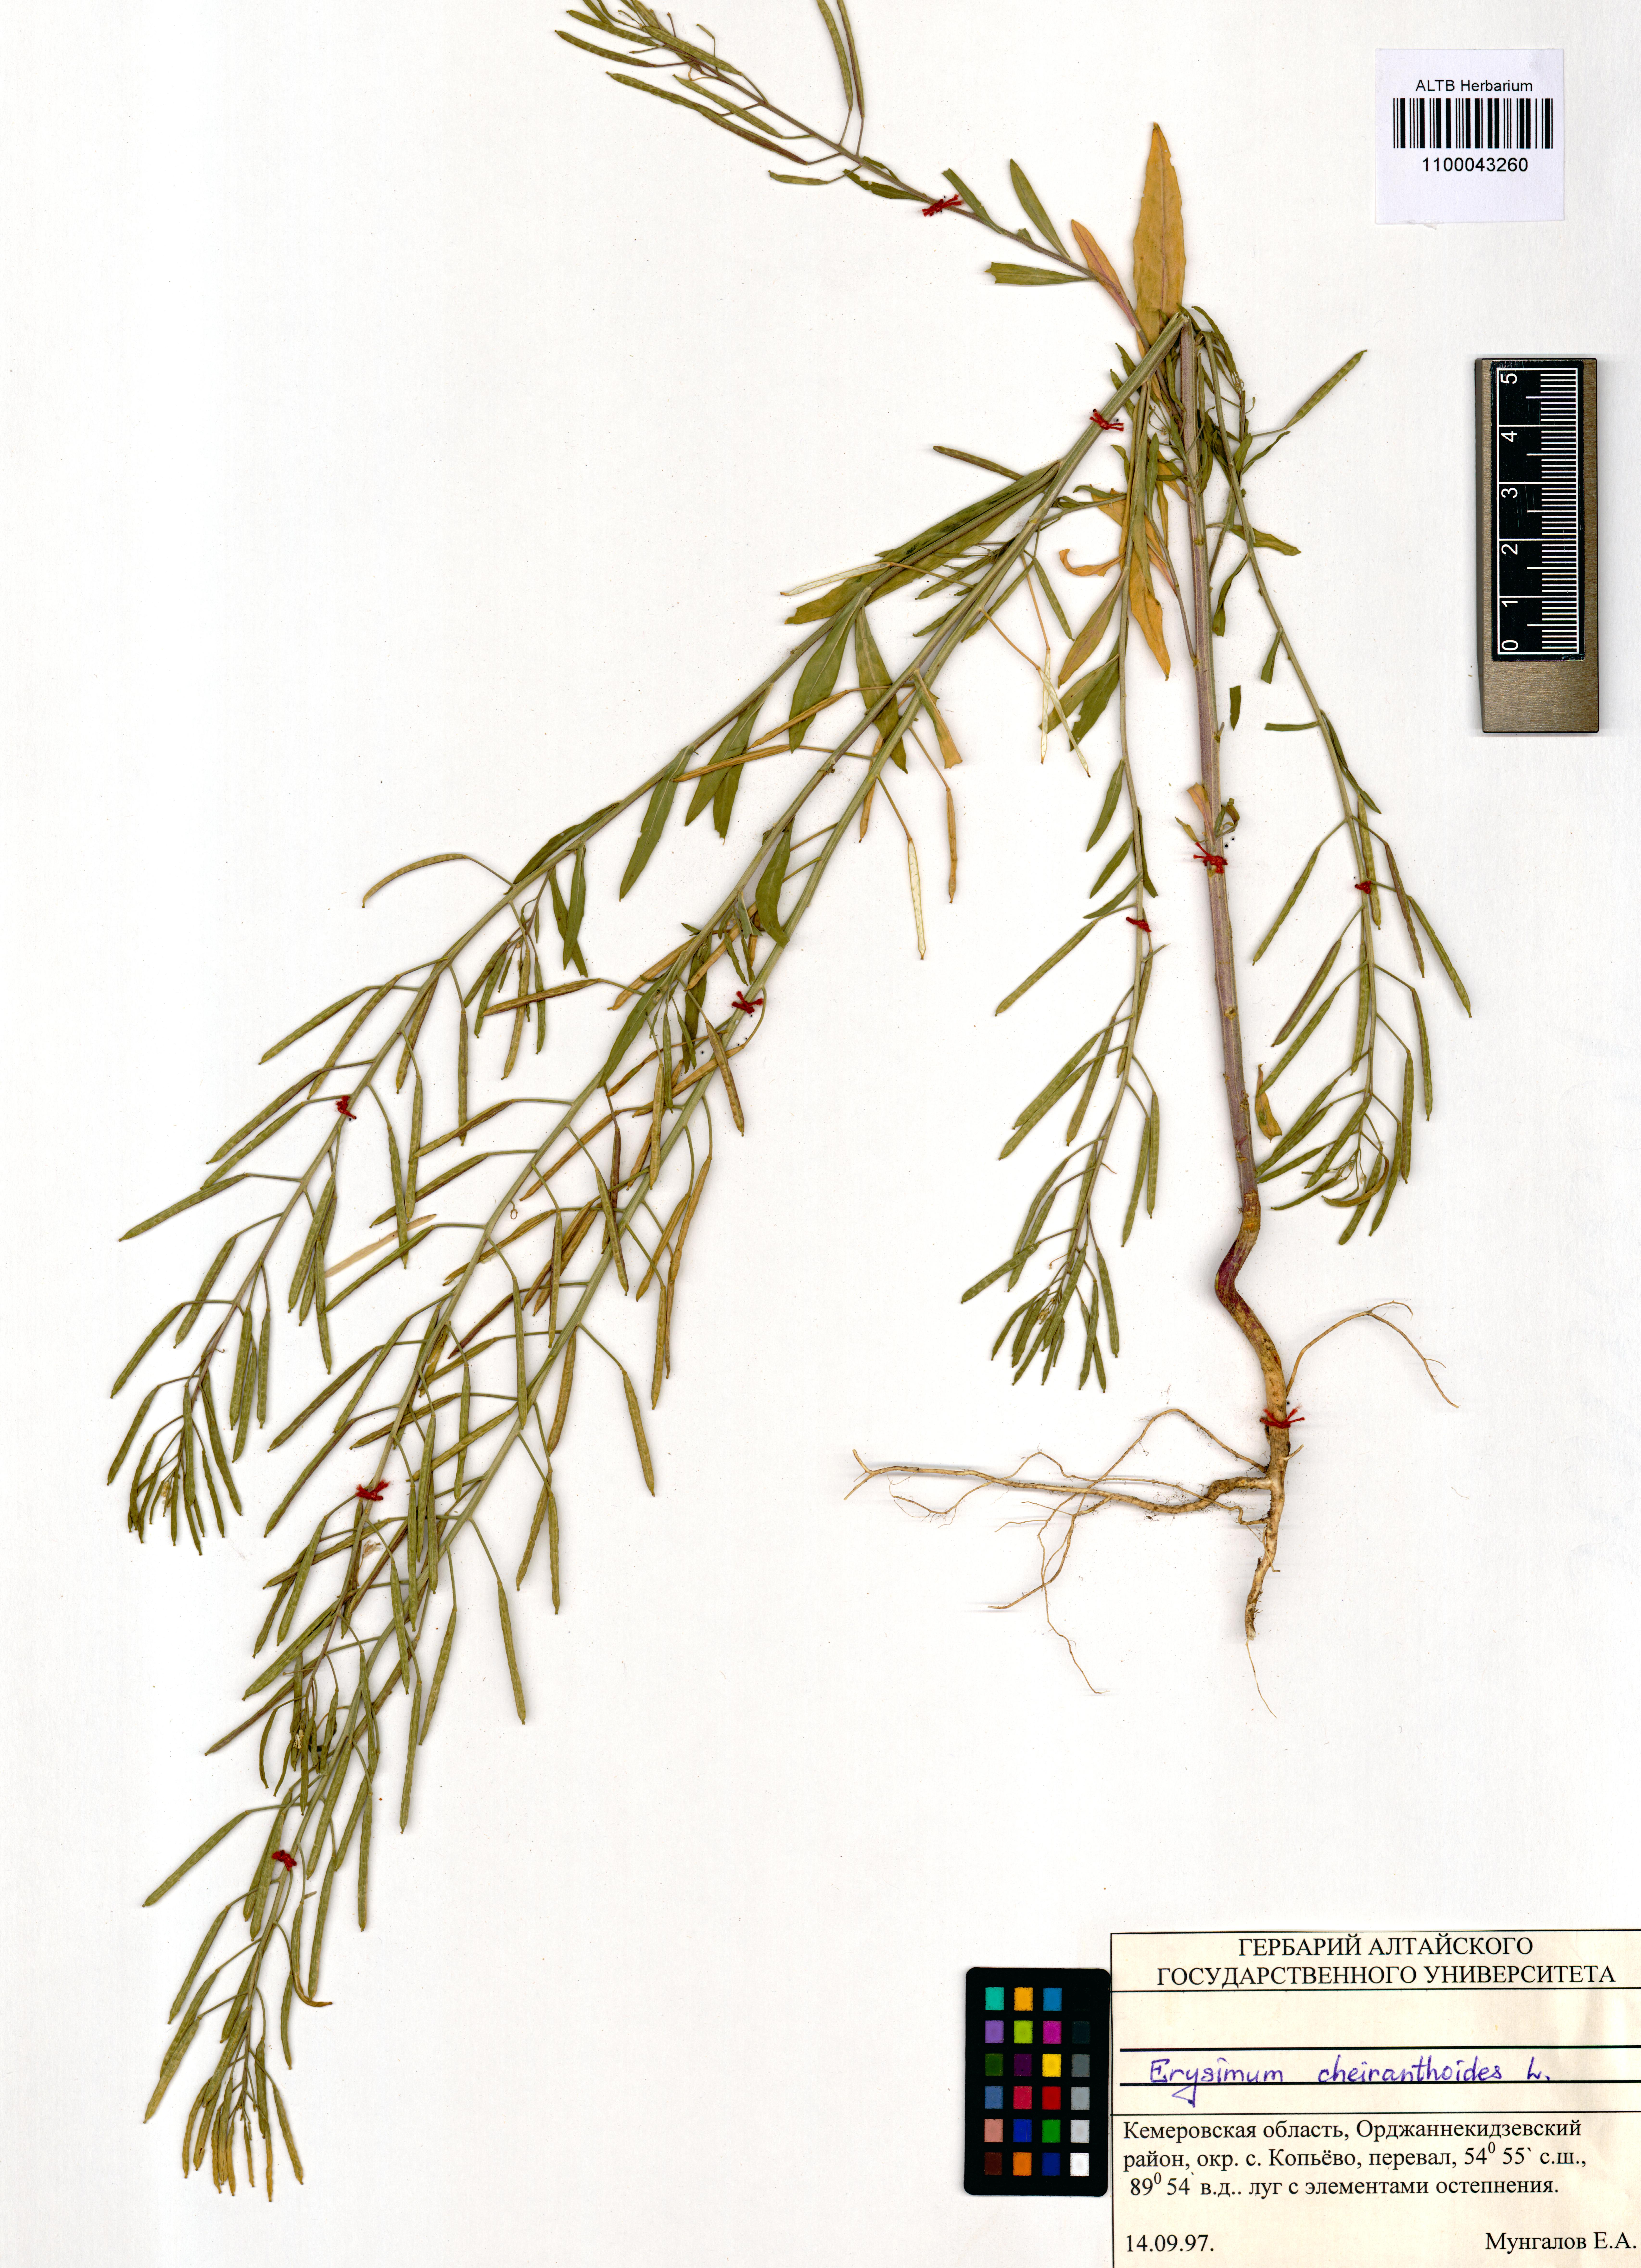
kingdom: Plantae
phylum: Tracheophyta
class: Magnoliopsida
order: Brassicales
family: Brassicaceae
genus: Erysimum
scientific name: Erysimum cheiranthoides
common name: Treacle mustard
